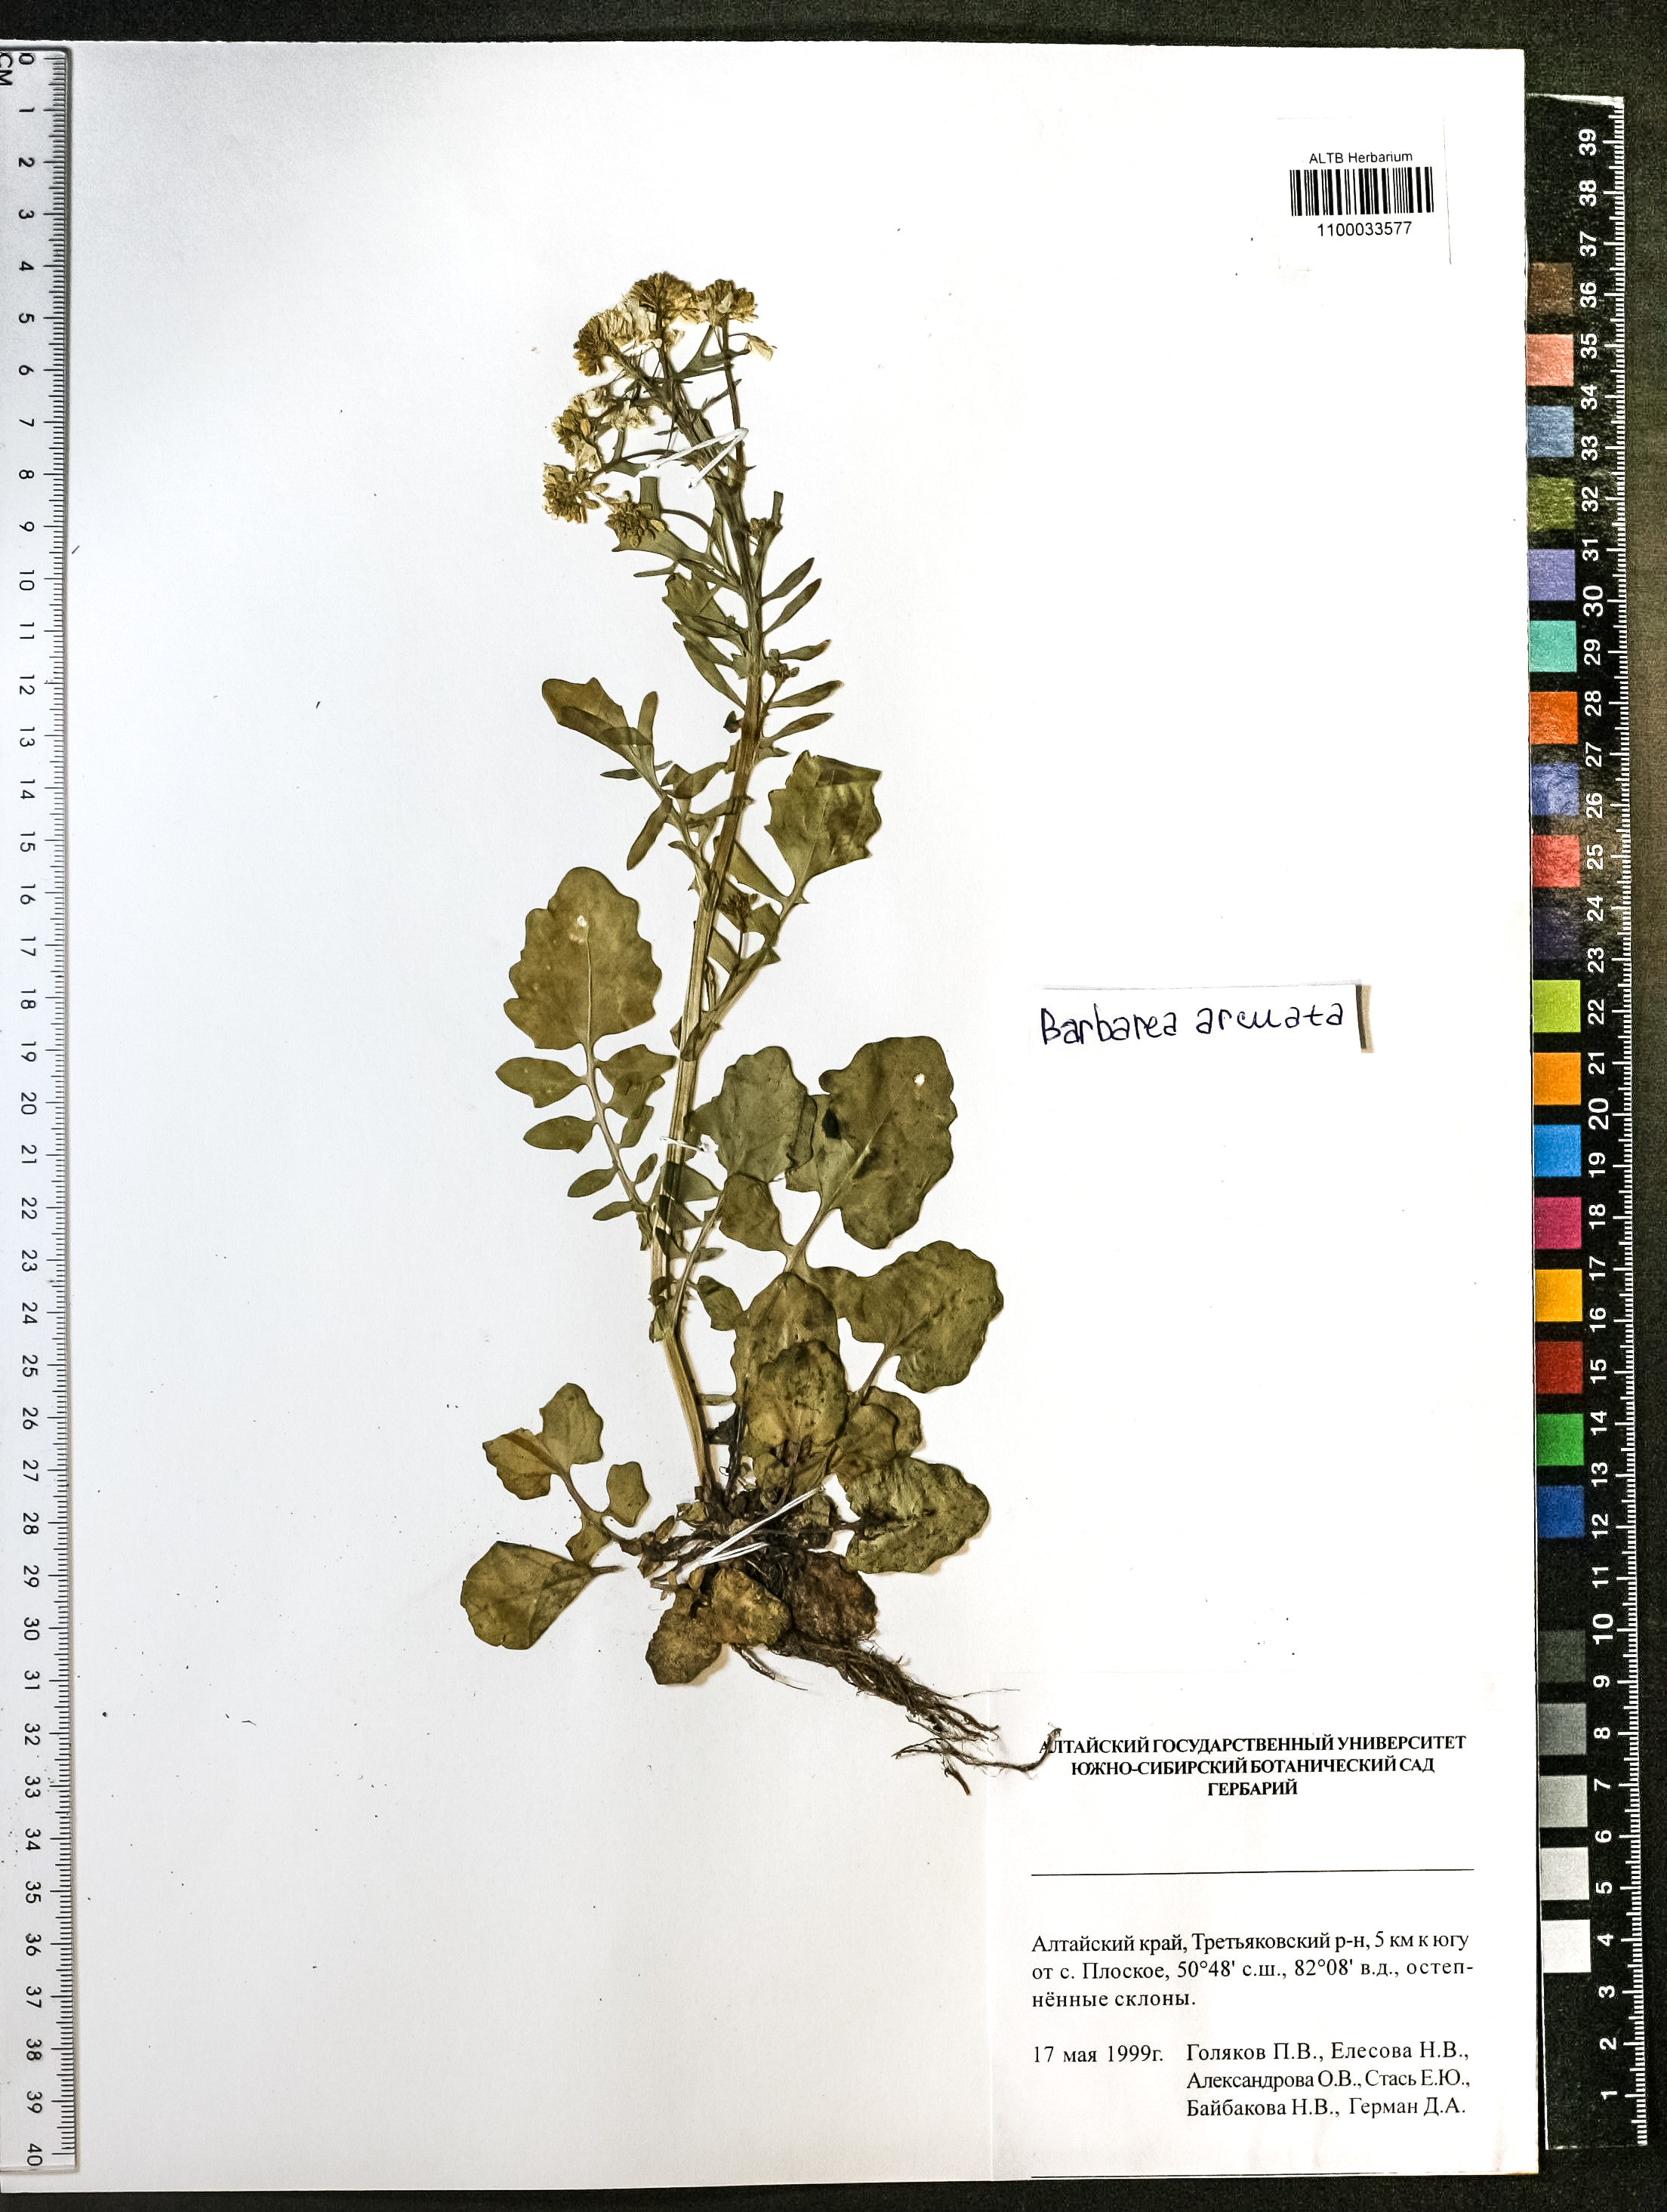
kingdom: Plantae
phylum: Tracheophyta
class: Magnoliopsida
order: Brassicales
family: Brassicaceae
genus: Barbarea
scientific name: Barbarea vulgaris
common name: Cressy-greens
